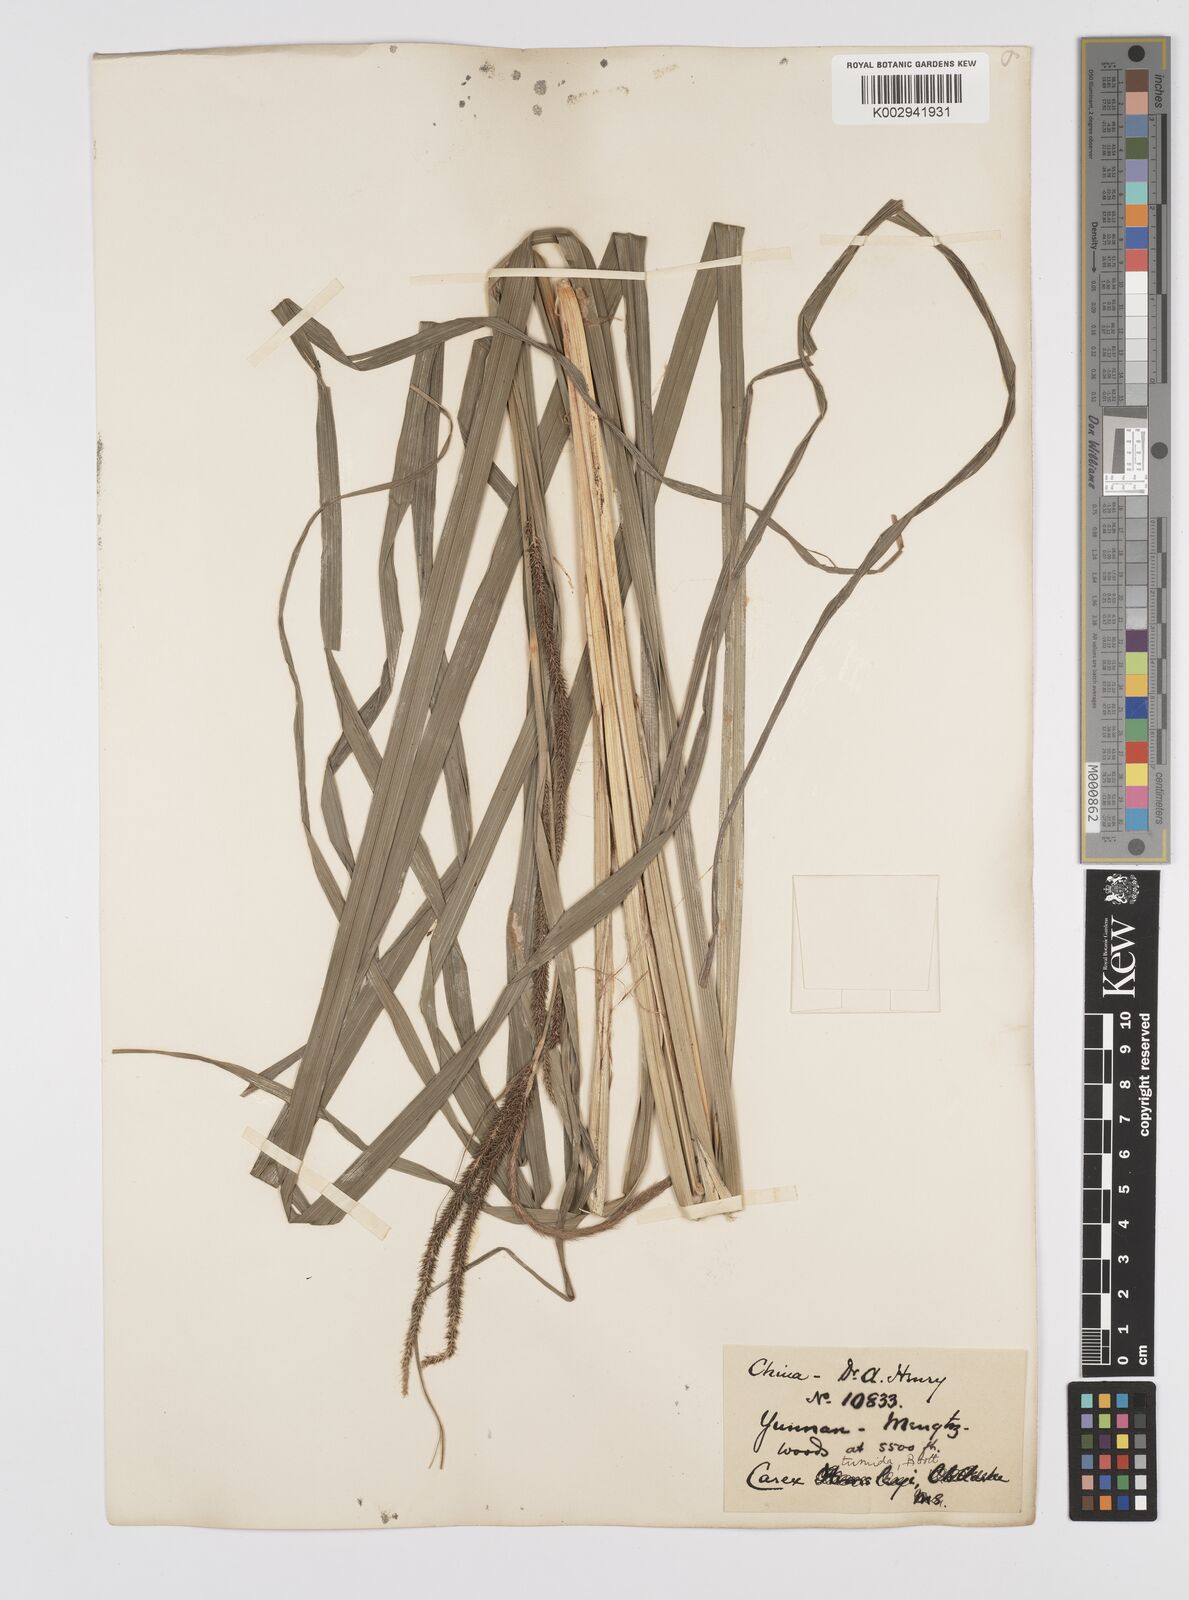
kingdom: Plantae
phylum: Tracheophyta
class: Liliopsida
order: Poales
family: Cyperaceae
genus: Carex
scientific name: Carex tumida
